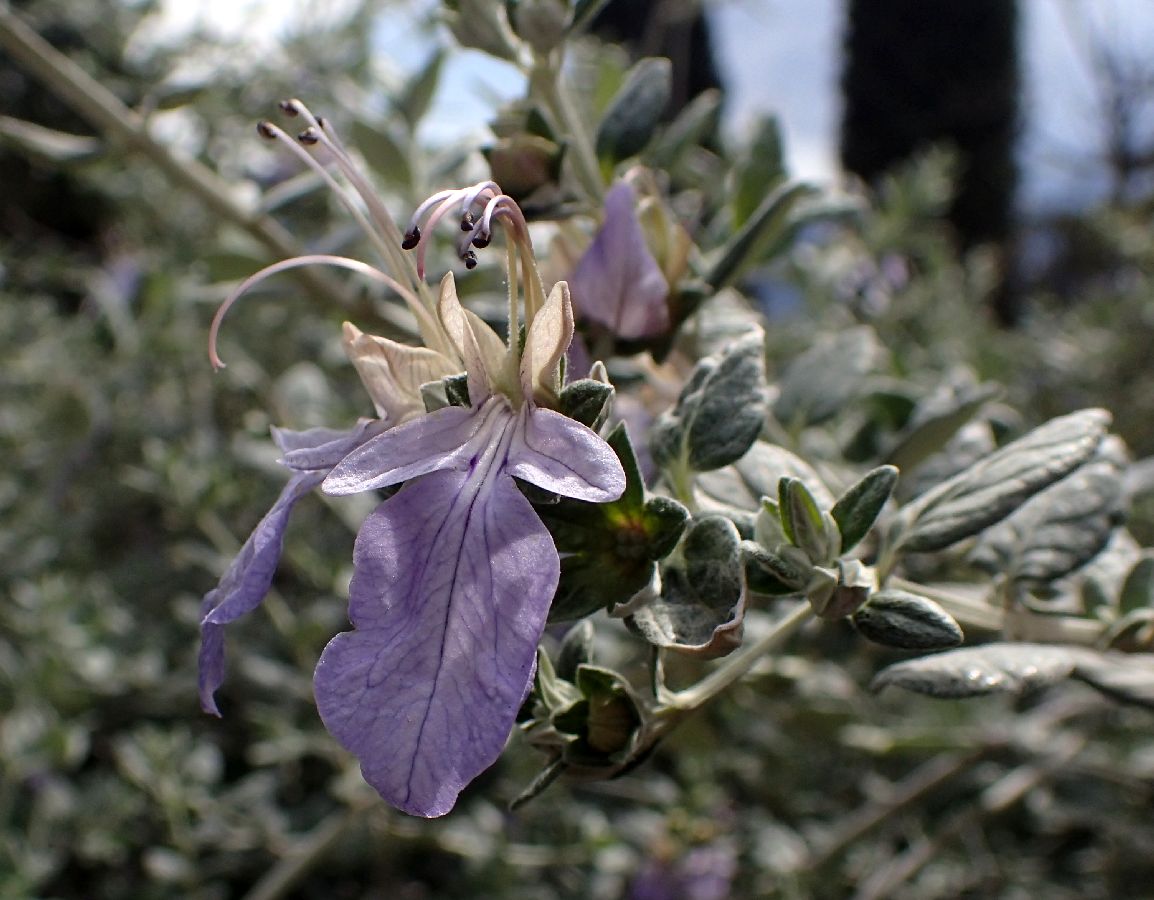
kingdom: Plantae
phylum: Tracheophyta
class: Magnoliopsida
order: Lamiales
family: Lamiaceae
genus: Teucrium
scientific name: Teucrium brevifolium
